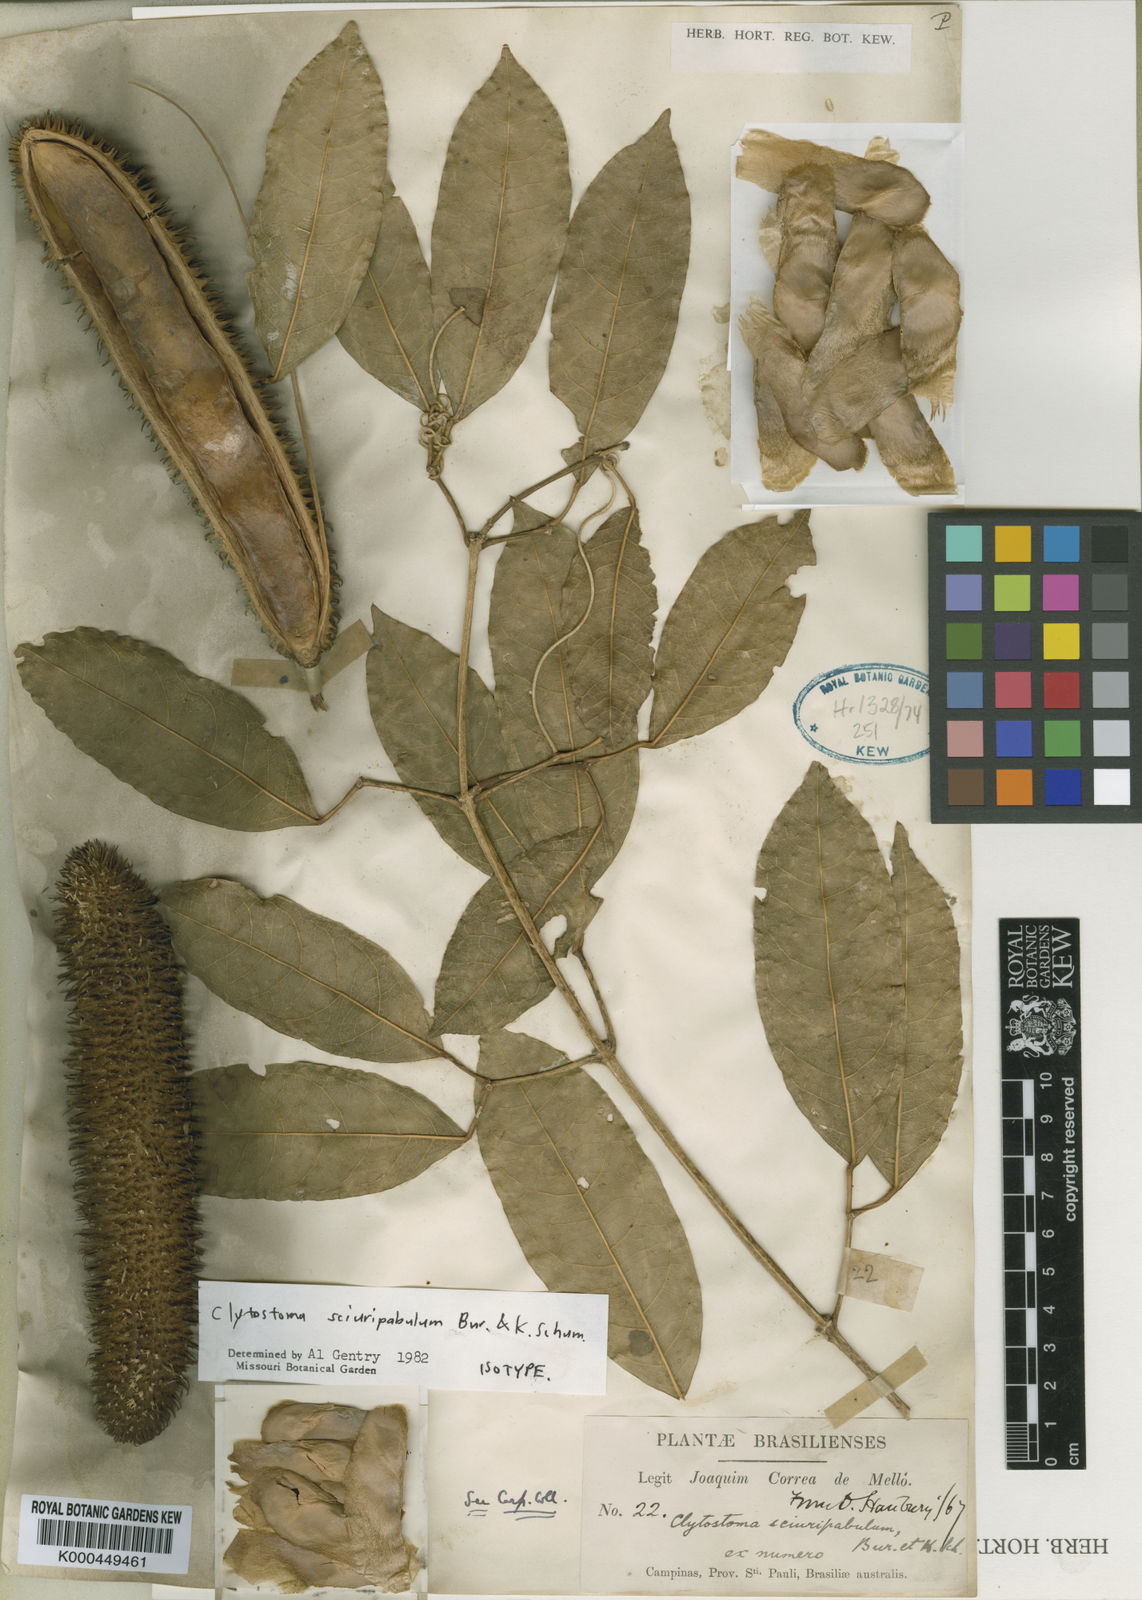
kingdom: Plantae
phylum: Tracheophyta
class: Magnoliopsida
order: Lamiales
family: Bignoniaceae
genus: Bignonia
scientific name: Bignonia
